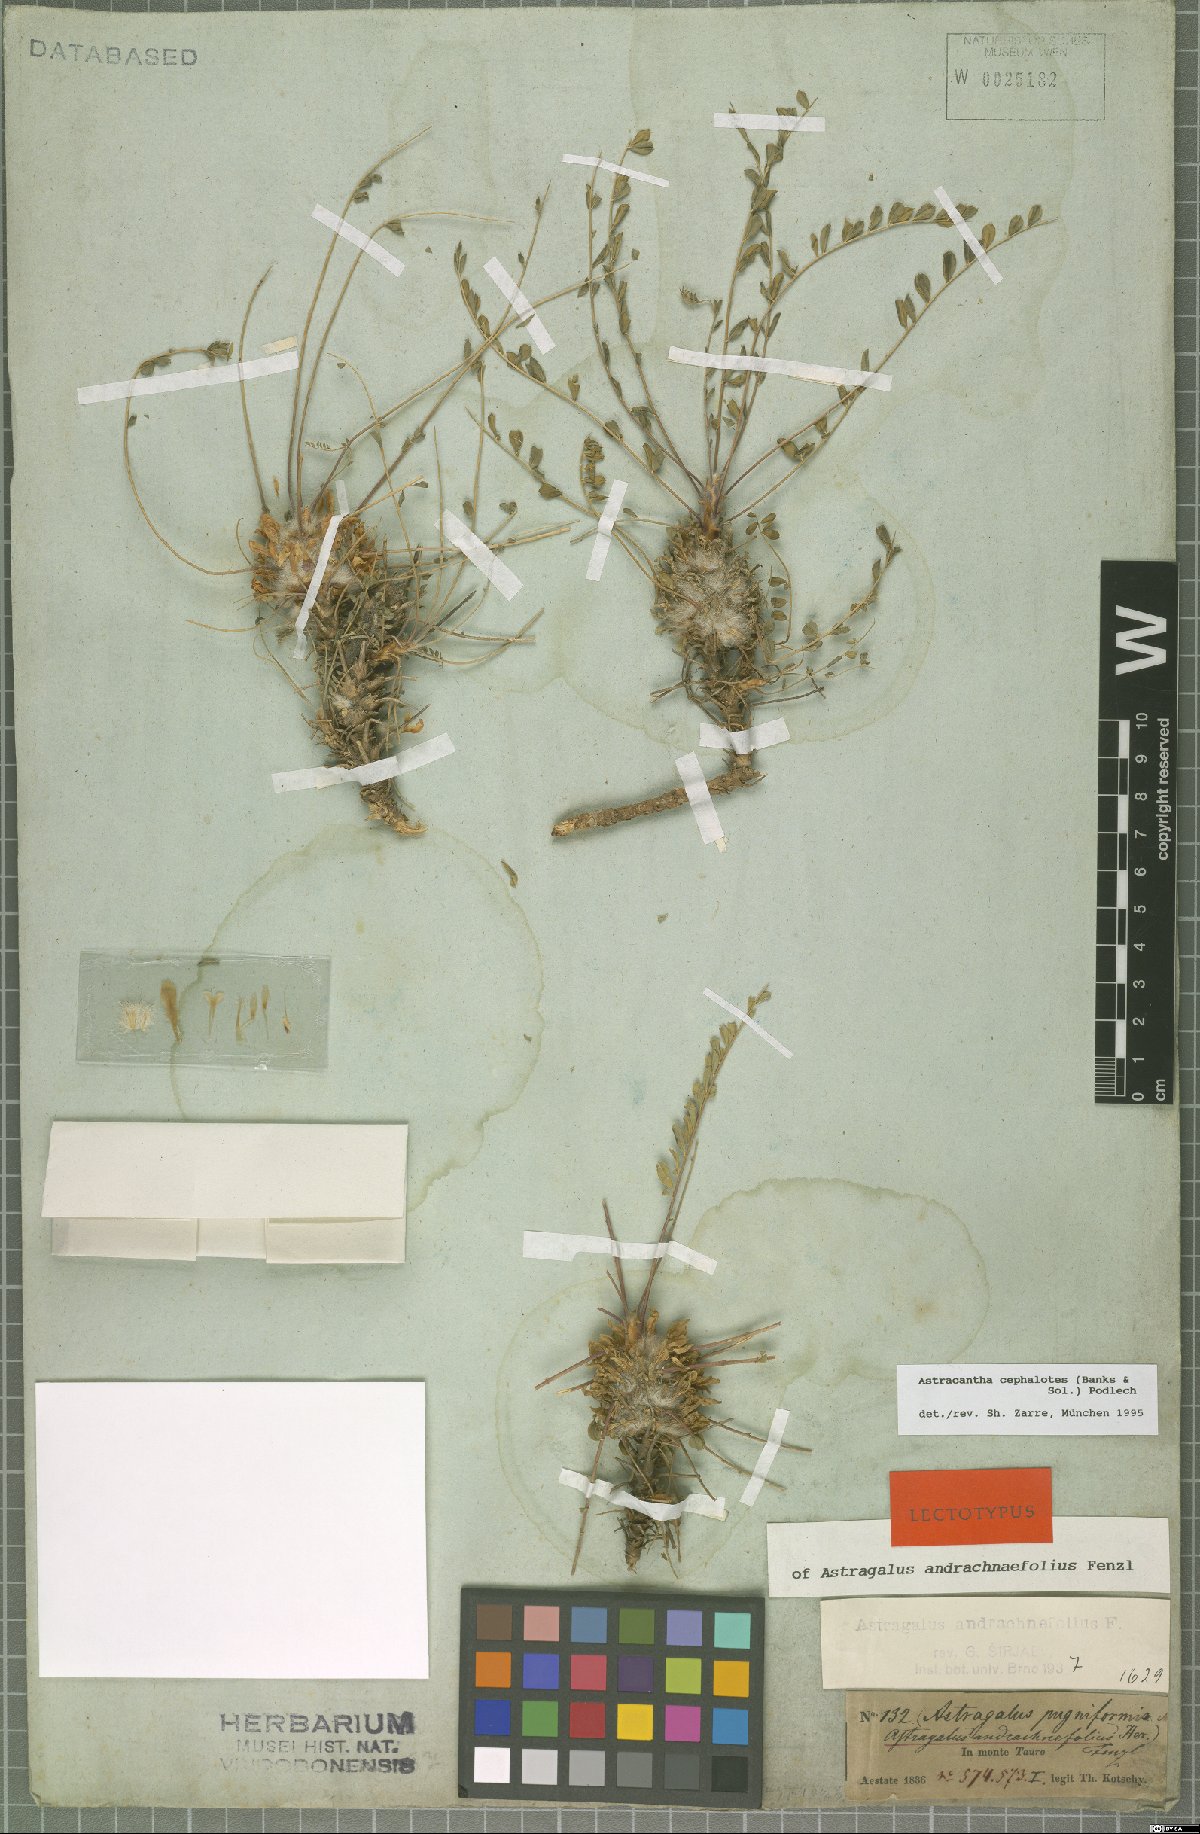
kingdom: Plantae
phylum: Tracheophyta
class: Magnoliopsida
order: Fabales
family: Fabaceae
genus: Astragalus
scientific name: Astragalus cephalotes
